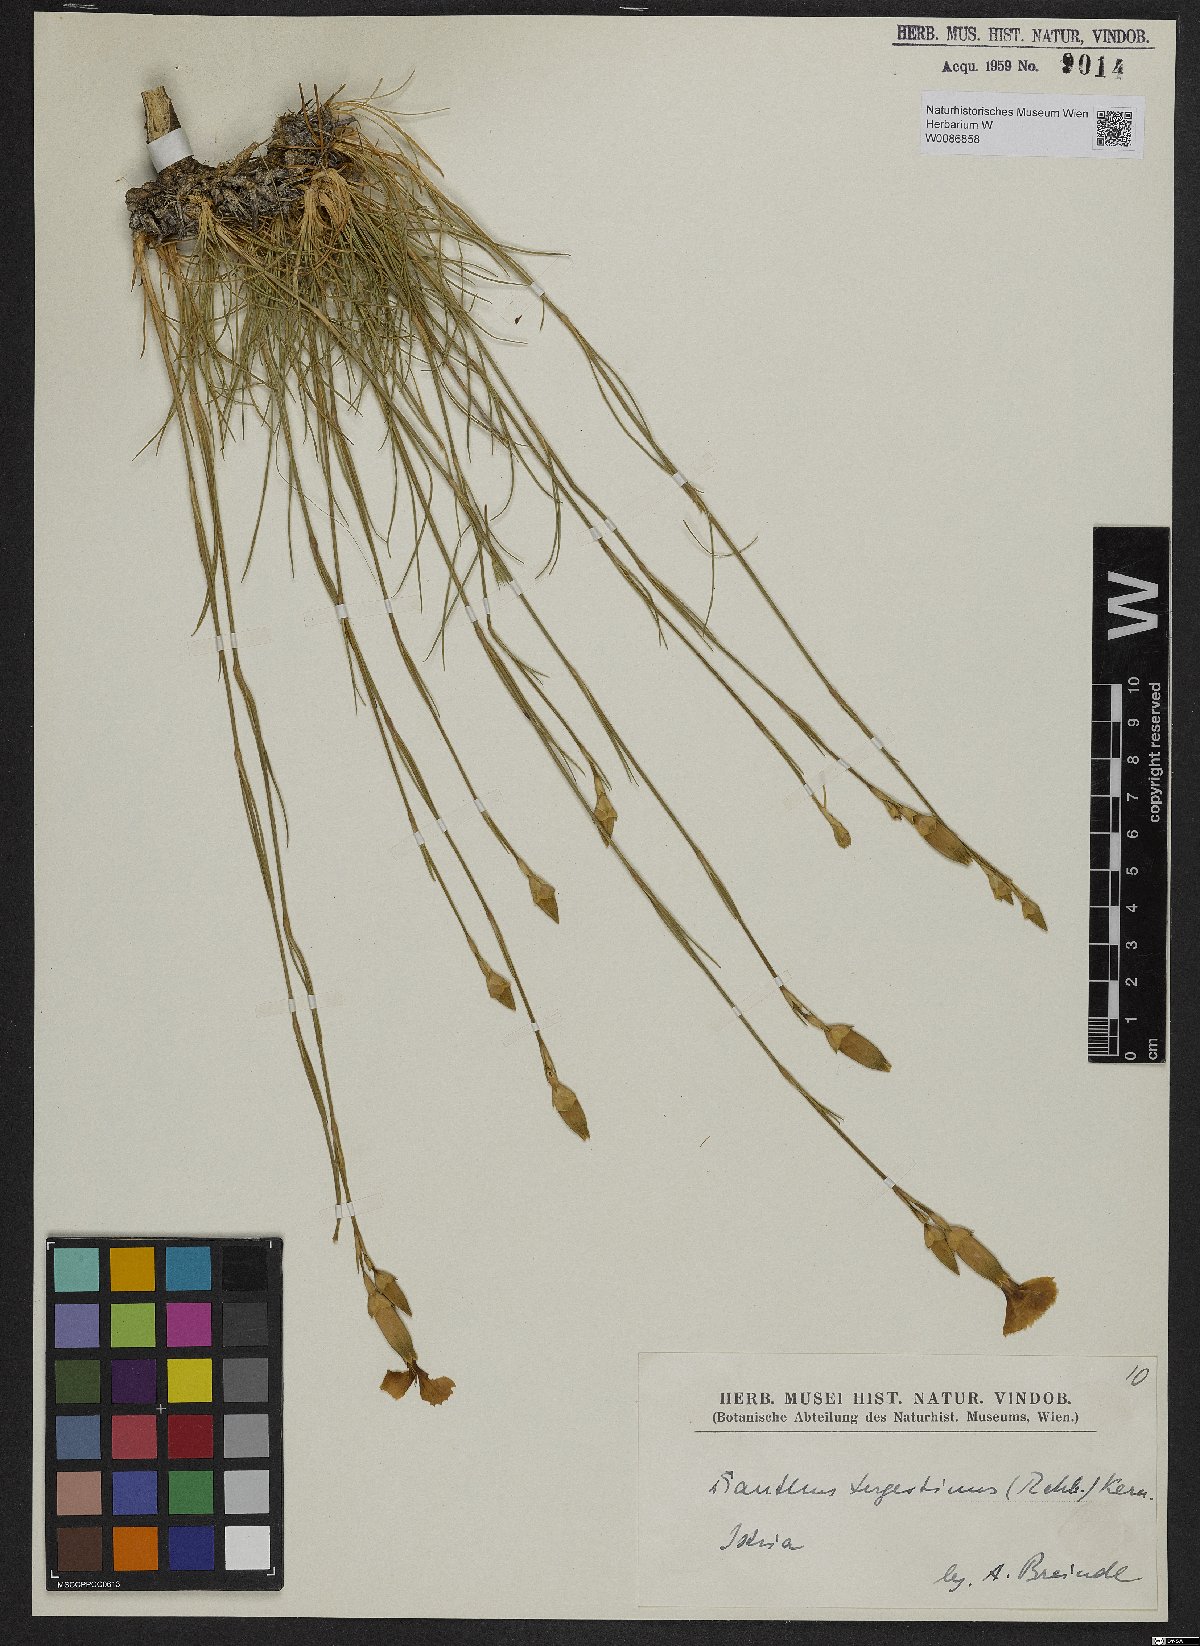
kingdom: Plantae
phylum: Tracheophyta
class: Magnoliopsida
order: Caryophyllales
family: Caryophyllaceae
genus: Dianthus
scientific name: Dianthus sylvestris
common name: Wood pink
